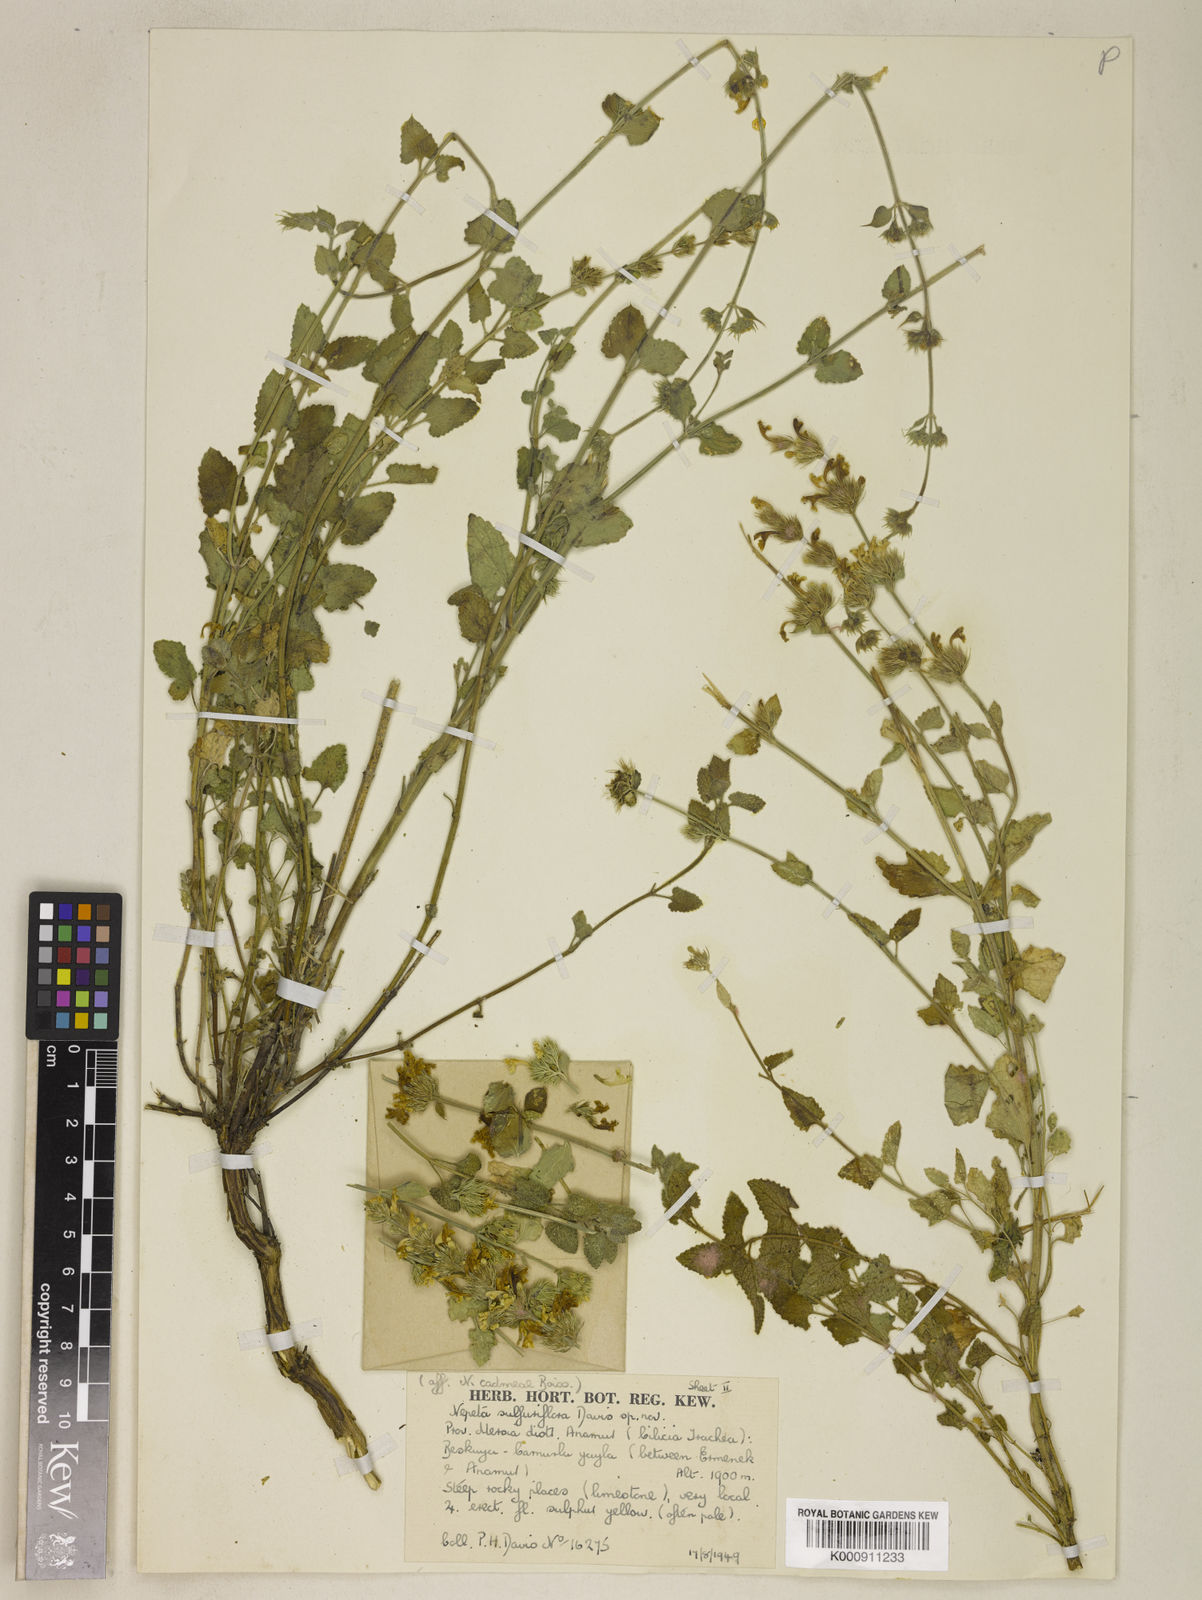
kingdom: Plantae
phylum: Tracheophyta
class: Magnoliopsida
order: Lamiales
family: Lamiaceae
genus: Nepeta
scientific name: Nepeta sulfuriflora
